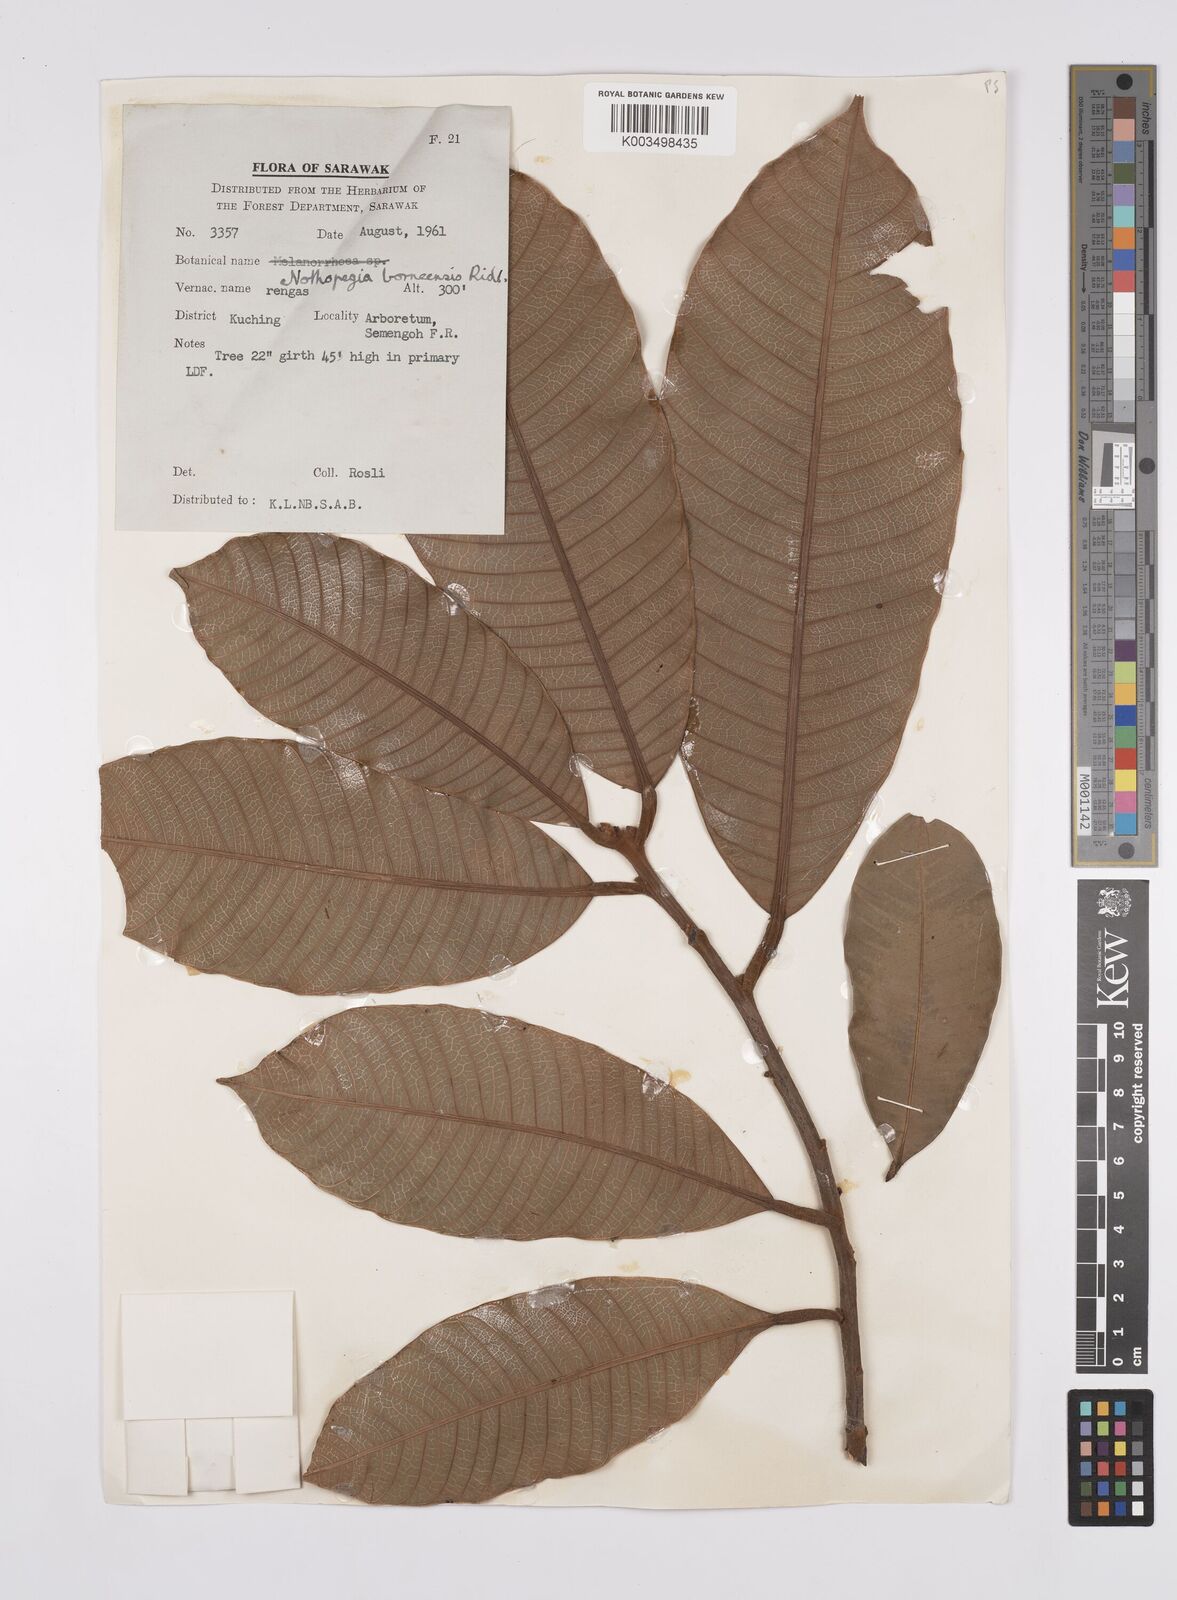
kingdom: Plantae
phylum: Tracheophyta
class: Magnoliopsida
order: Sapindales
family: Anacardiaceae
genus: Melanochyla
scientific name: Melanochyla borneensis
